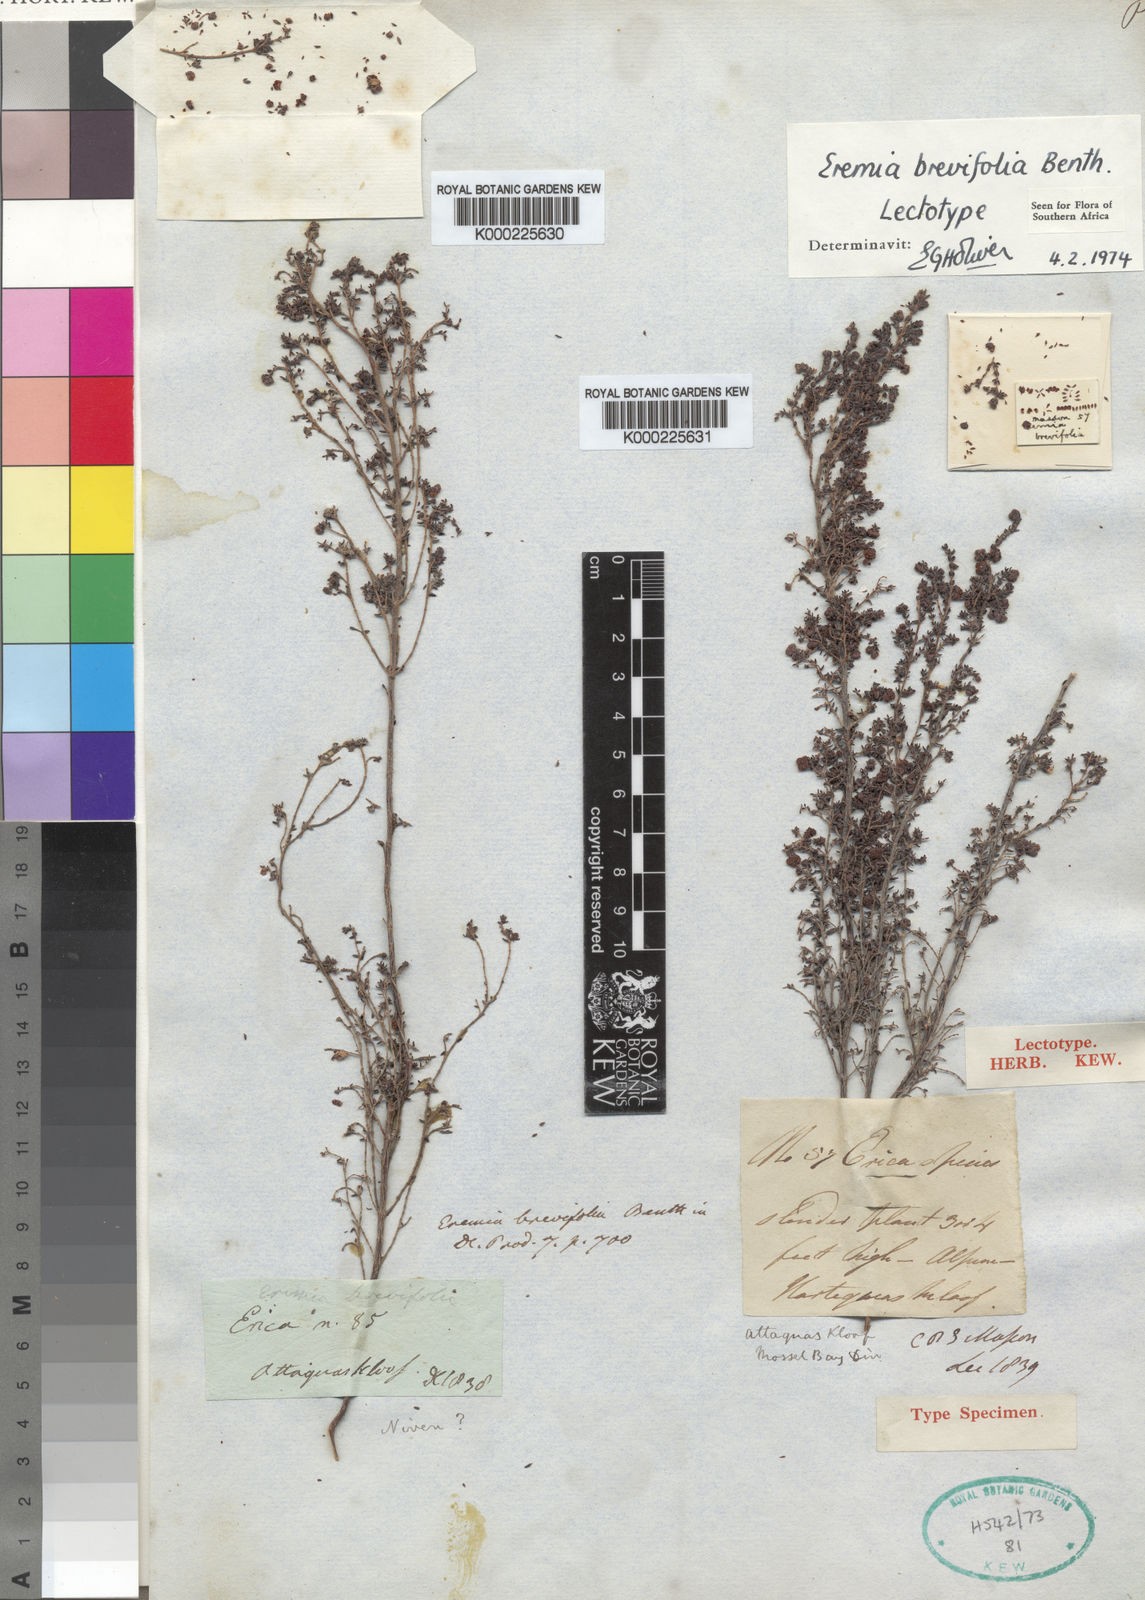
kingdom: Plantae
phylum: Tracheophyta
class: Magnoliopsida
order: Ericales
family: Ericaceae
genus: Erica
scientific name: Erica velatiflora
